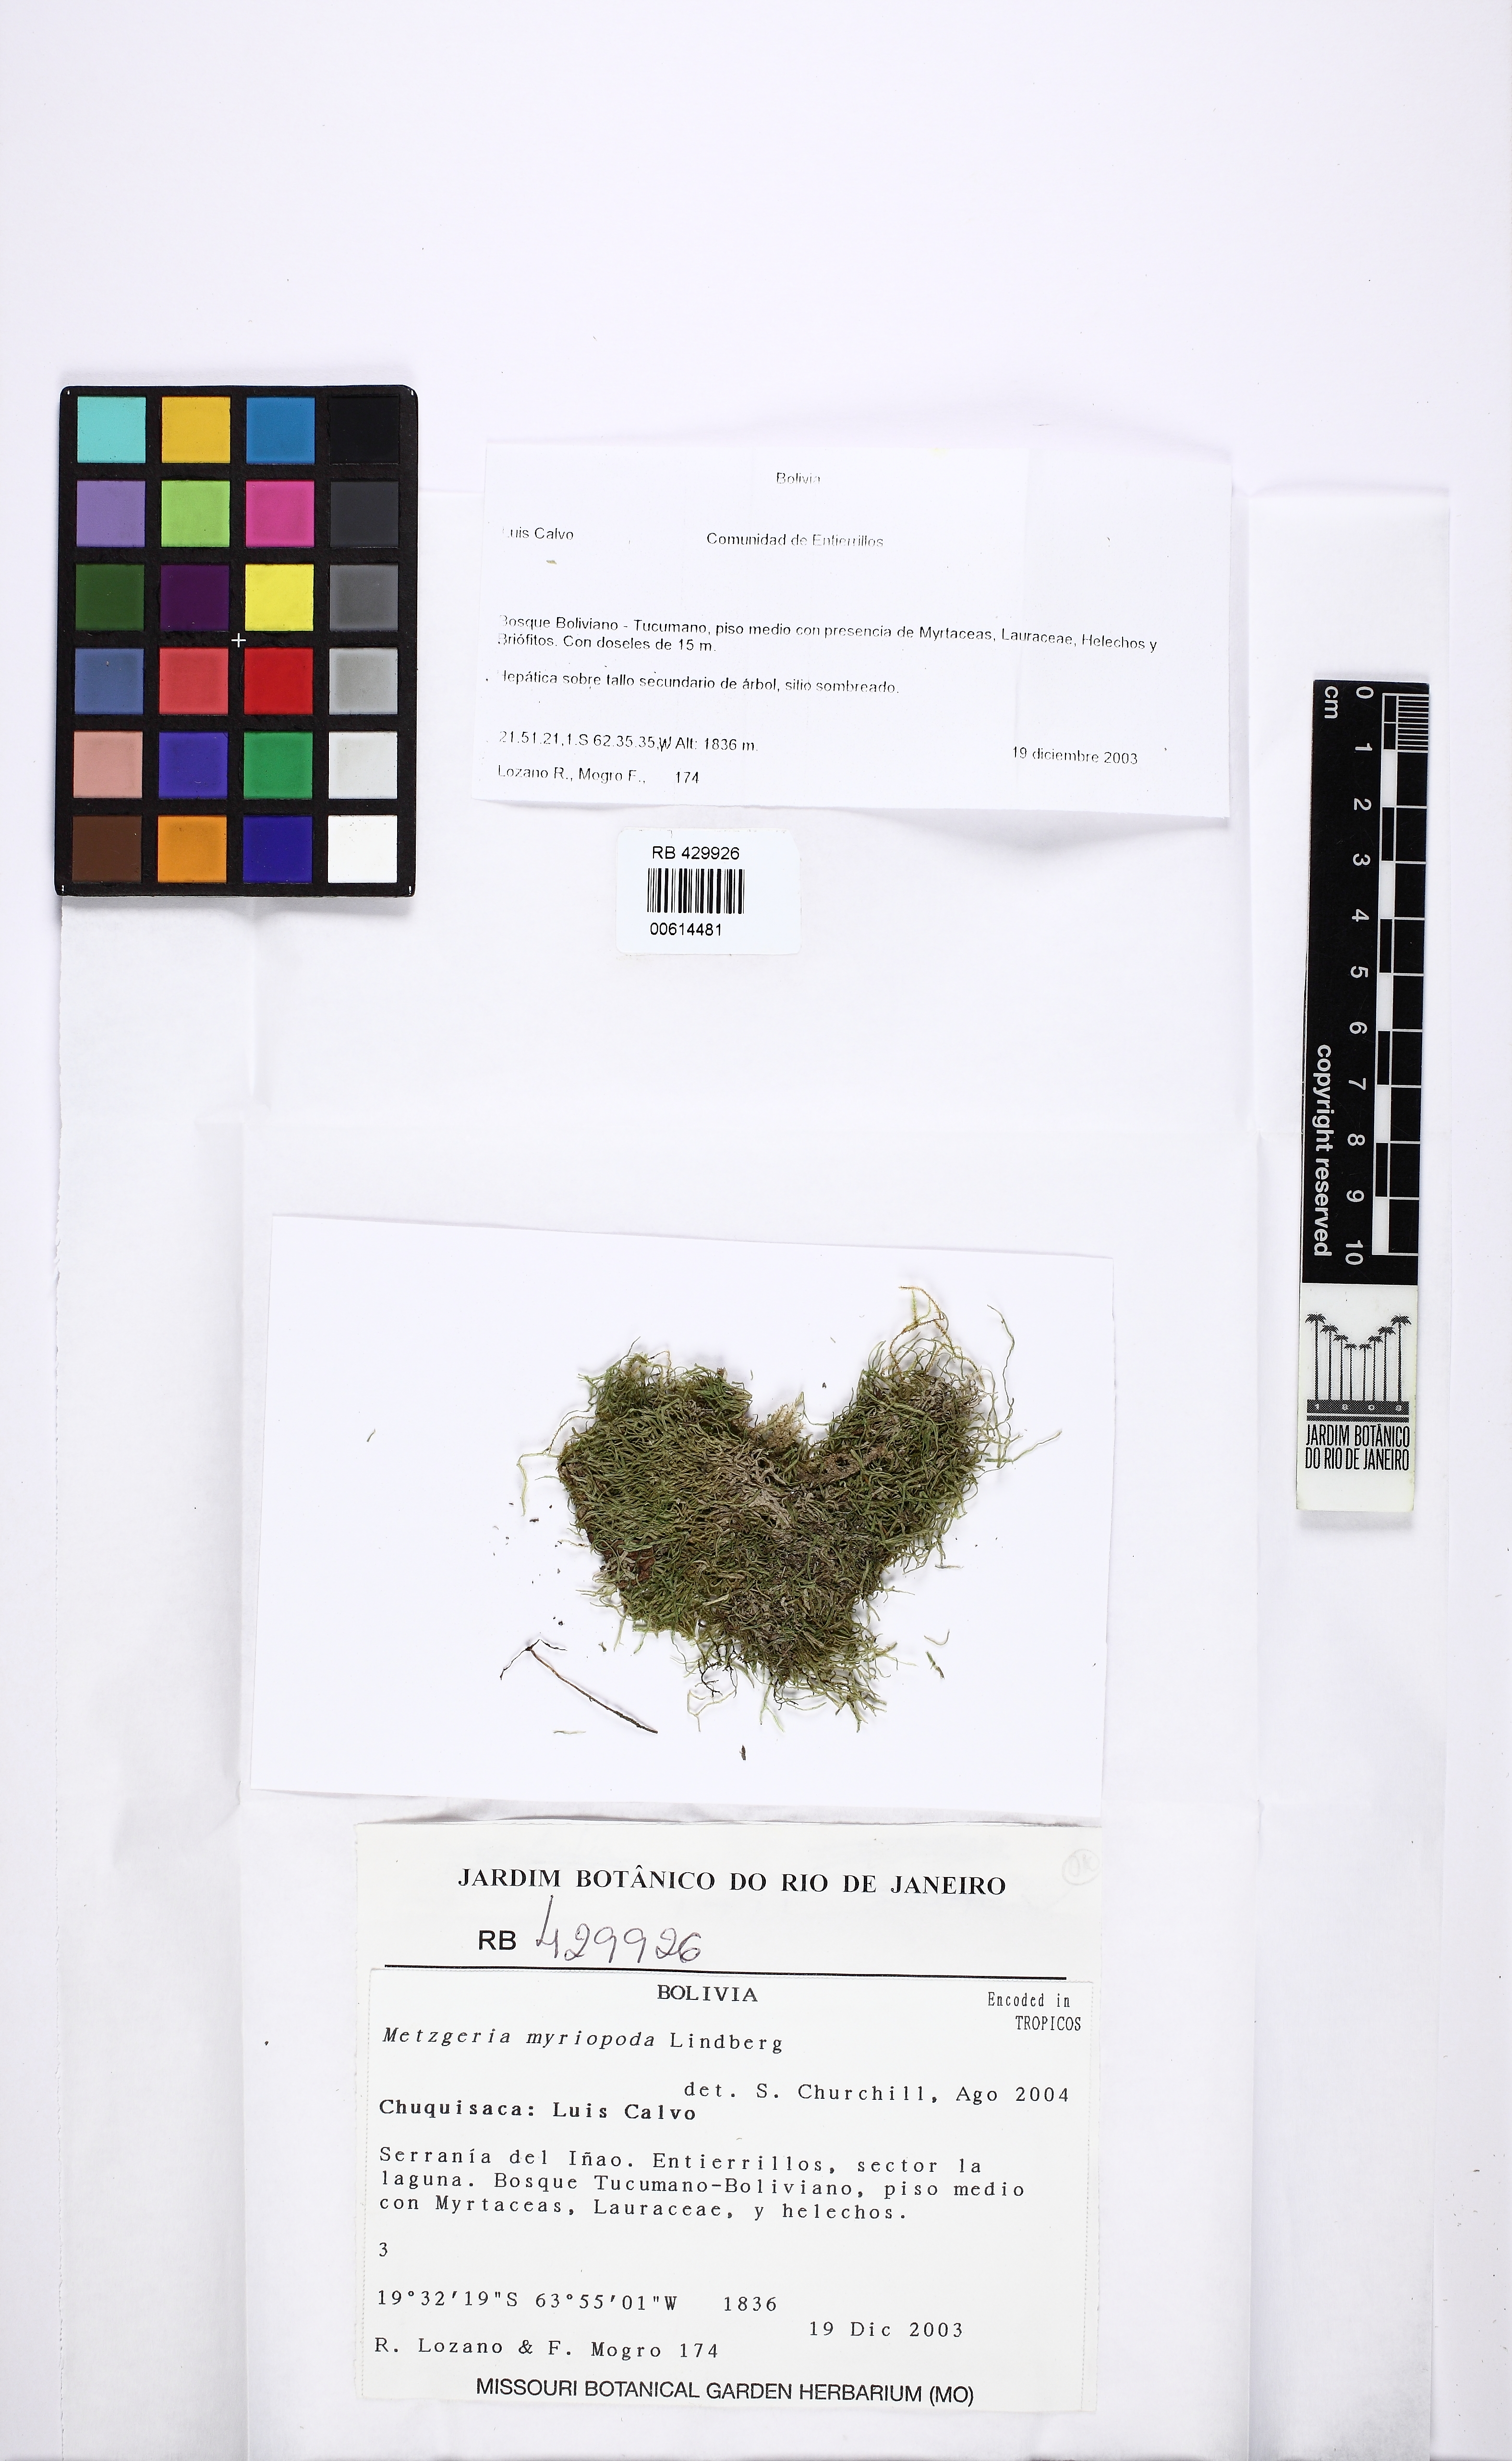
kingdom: Plantae
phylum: Marchantiophyta
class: Jungermanniopsida
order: Metzgeriales
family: Metzgeriaceae
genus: Metzgeria
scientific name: Metzgeria myriopoda
